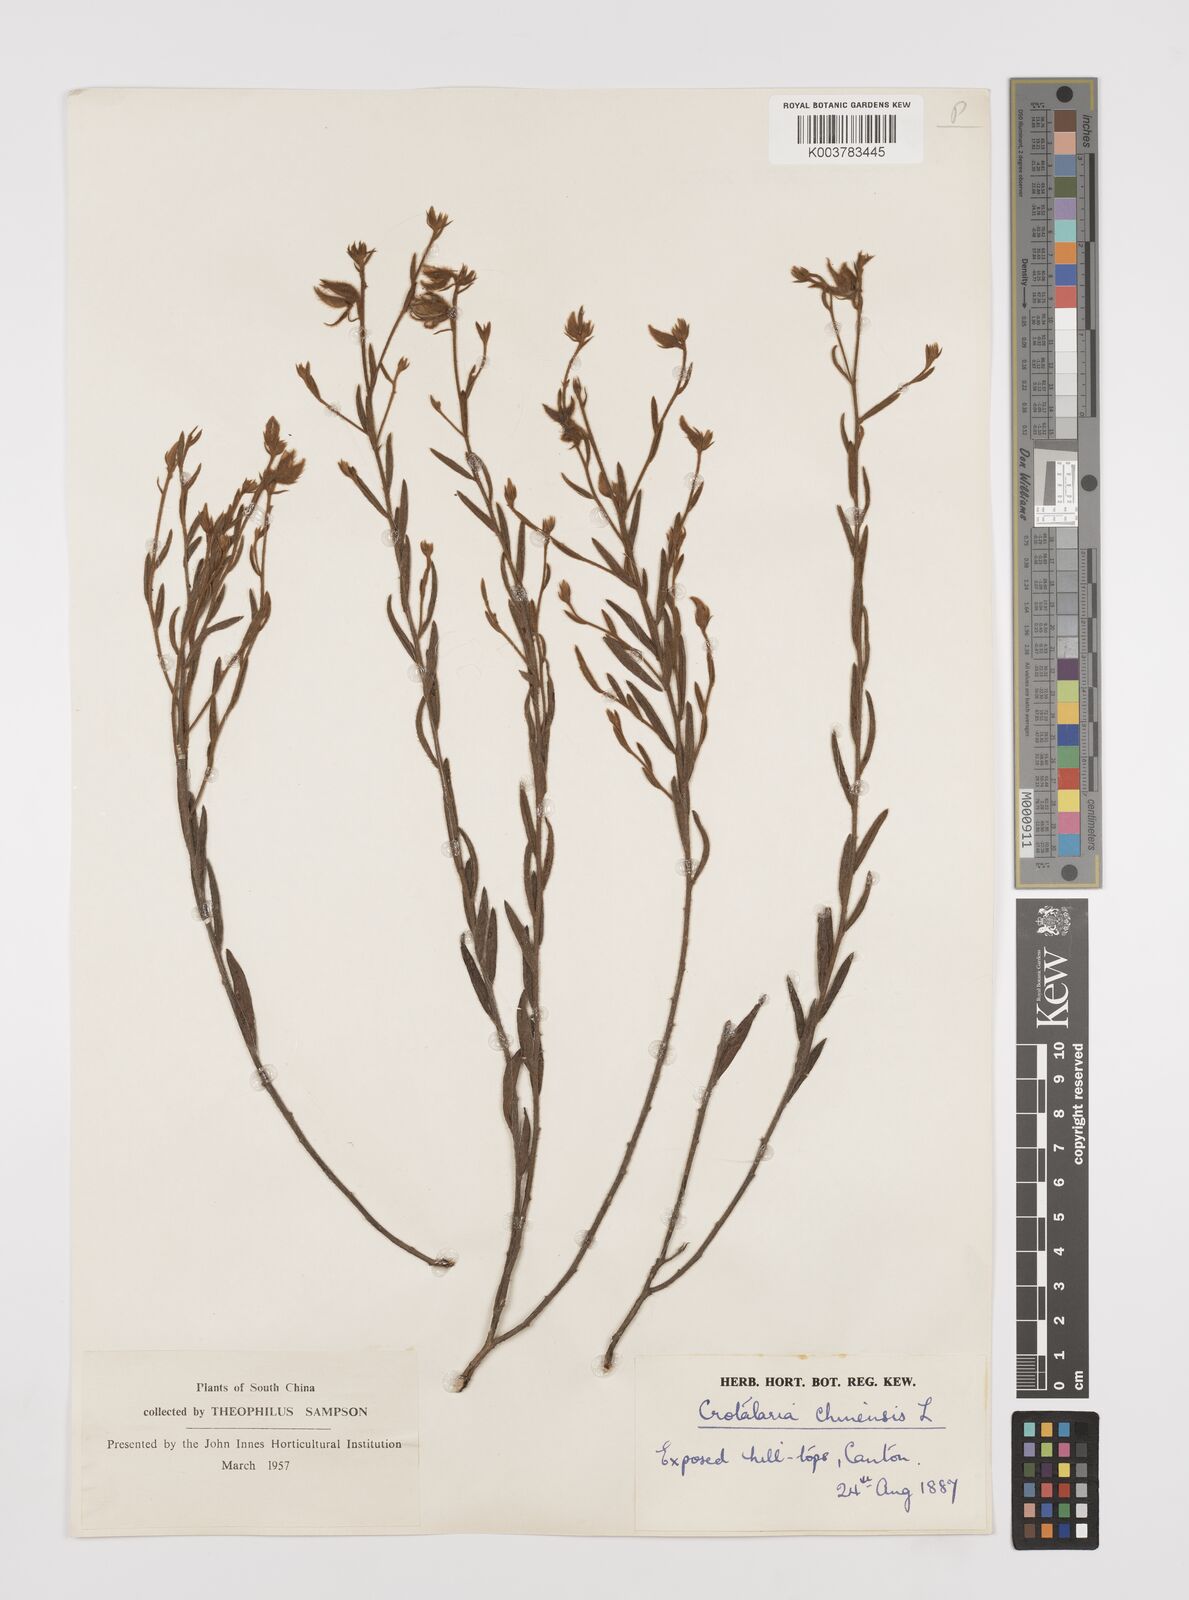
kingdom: Plantae
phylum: Tracheophyta
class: Magnoliopsida
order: Fabales
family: Fabaceae
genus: Crotalaria
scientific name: Crotalaria chinensis
